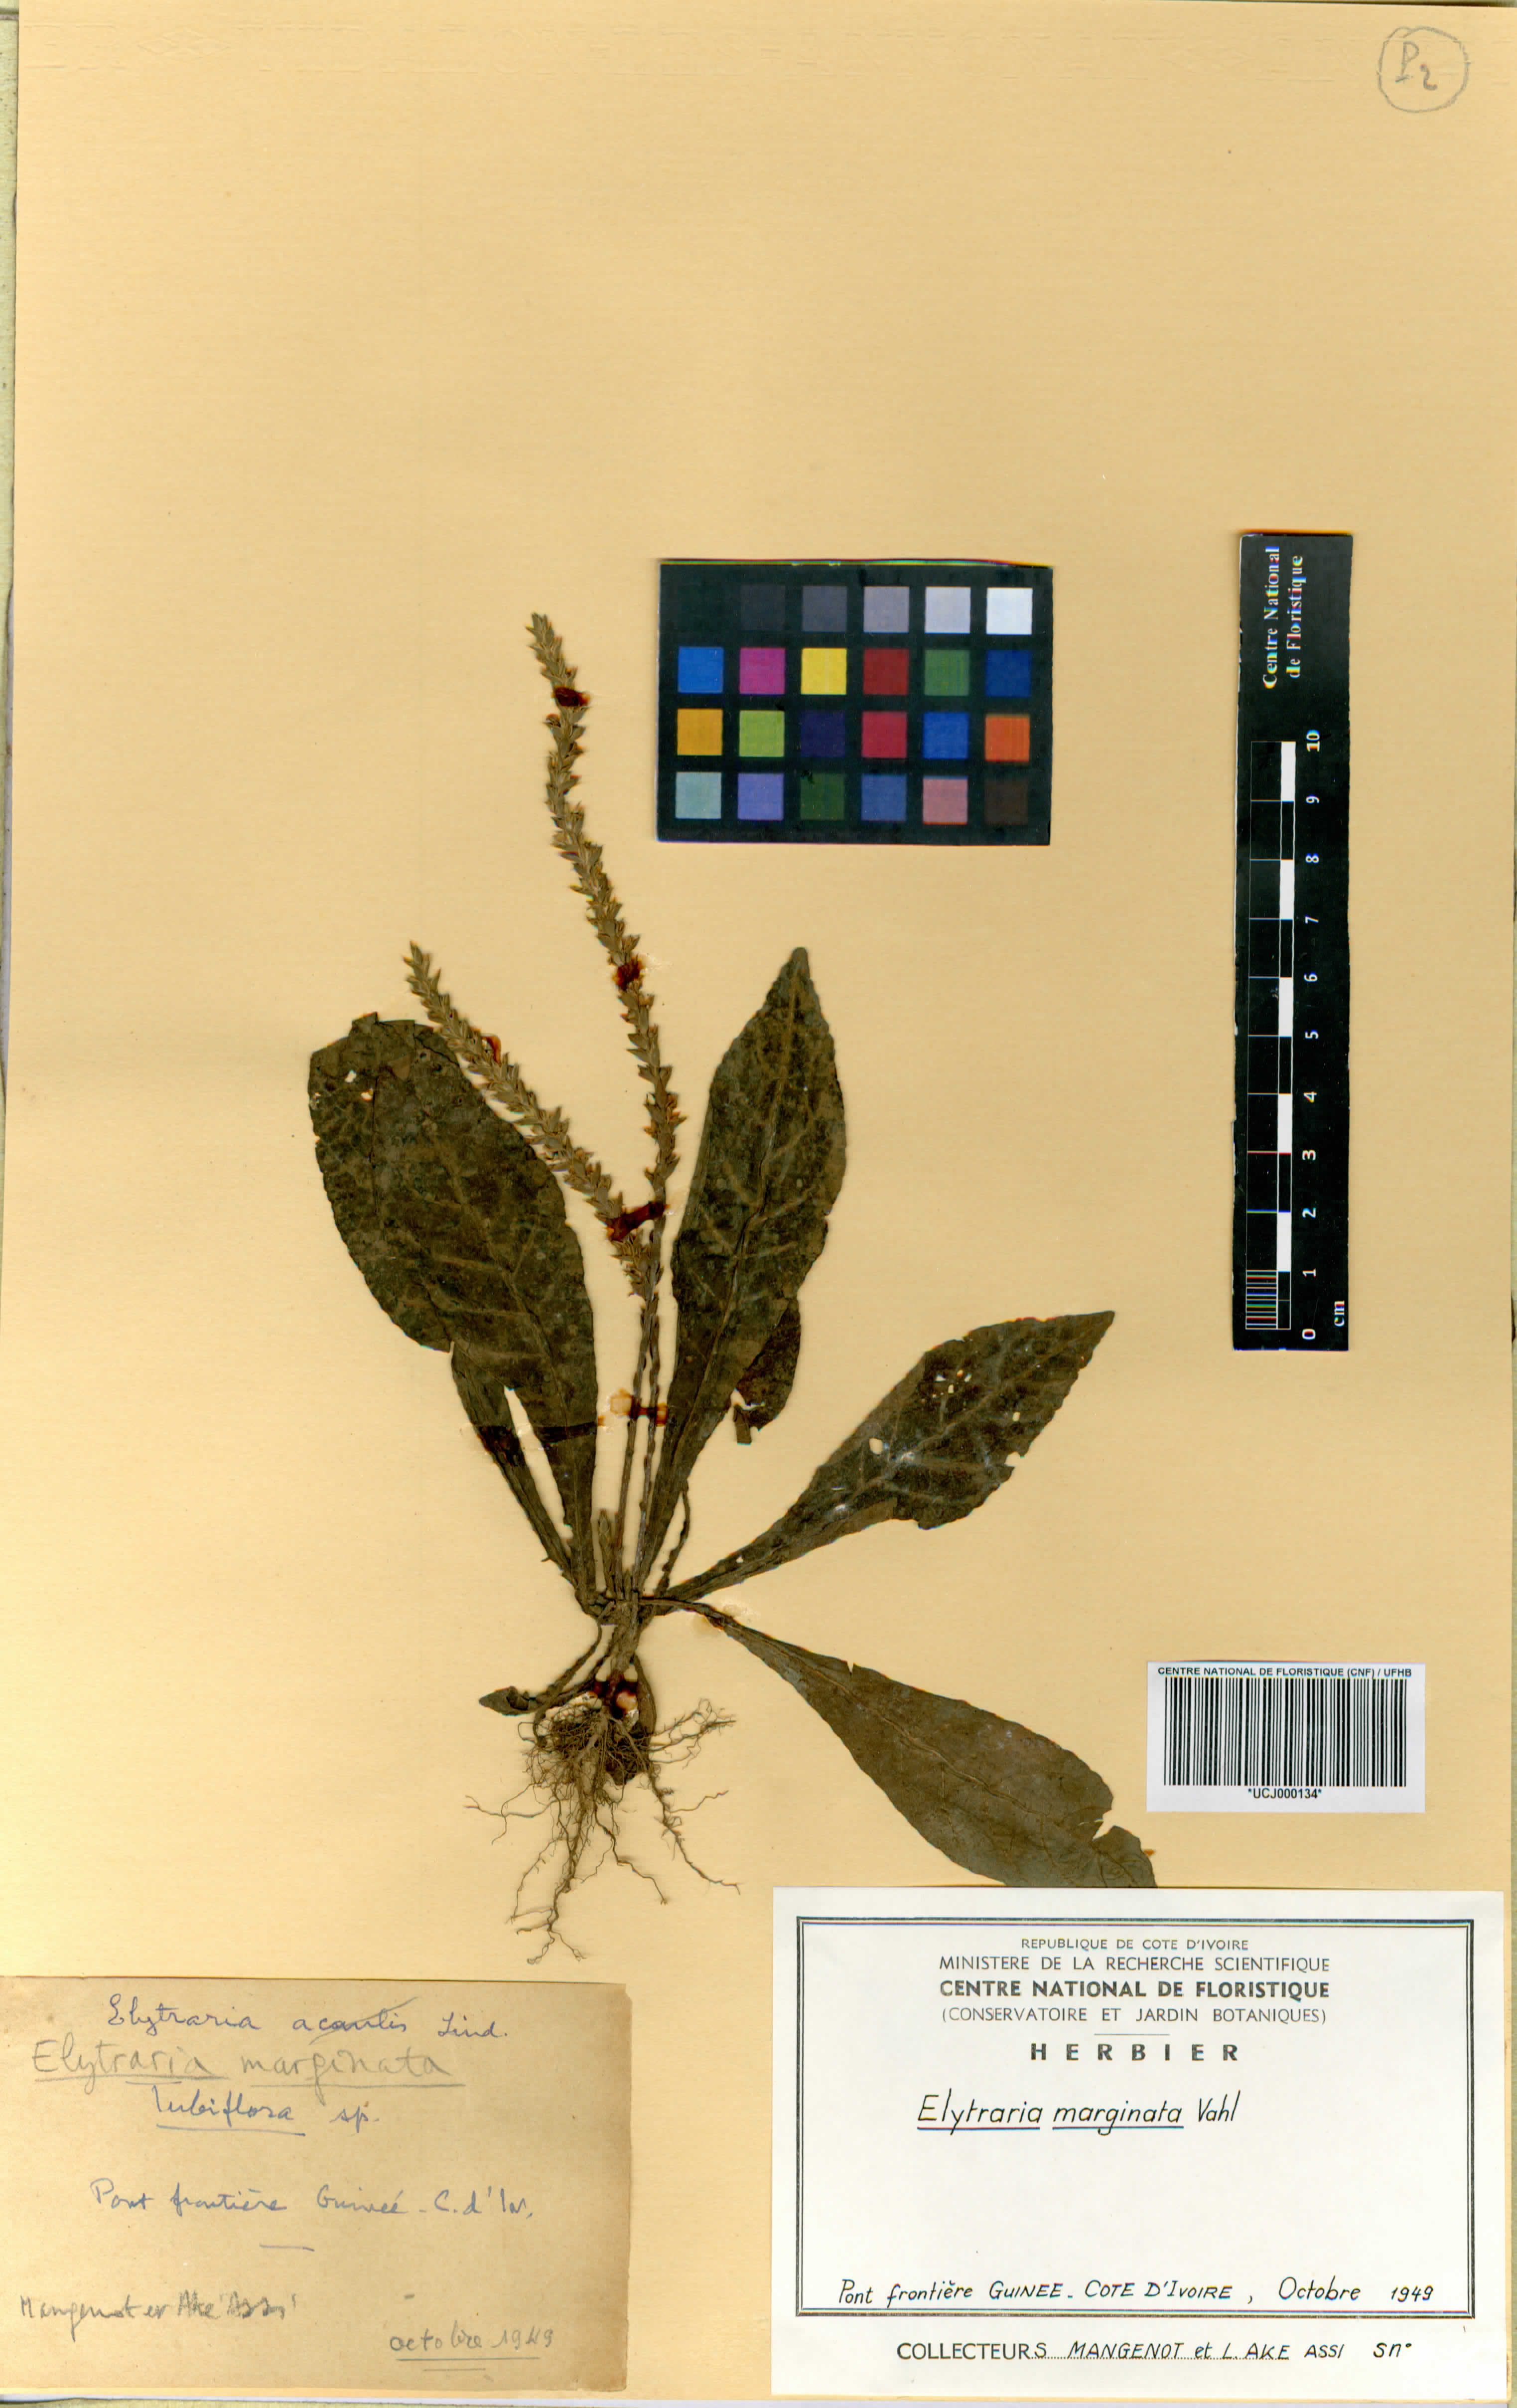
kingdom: Plantae
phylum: Tracheophyta
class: Magnoliopsida
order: Lamiales
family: Acanthaceae
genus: Elytraria
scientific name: Elytraria marginata
